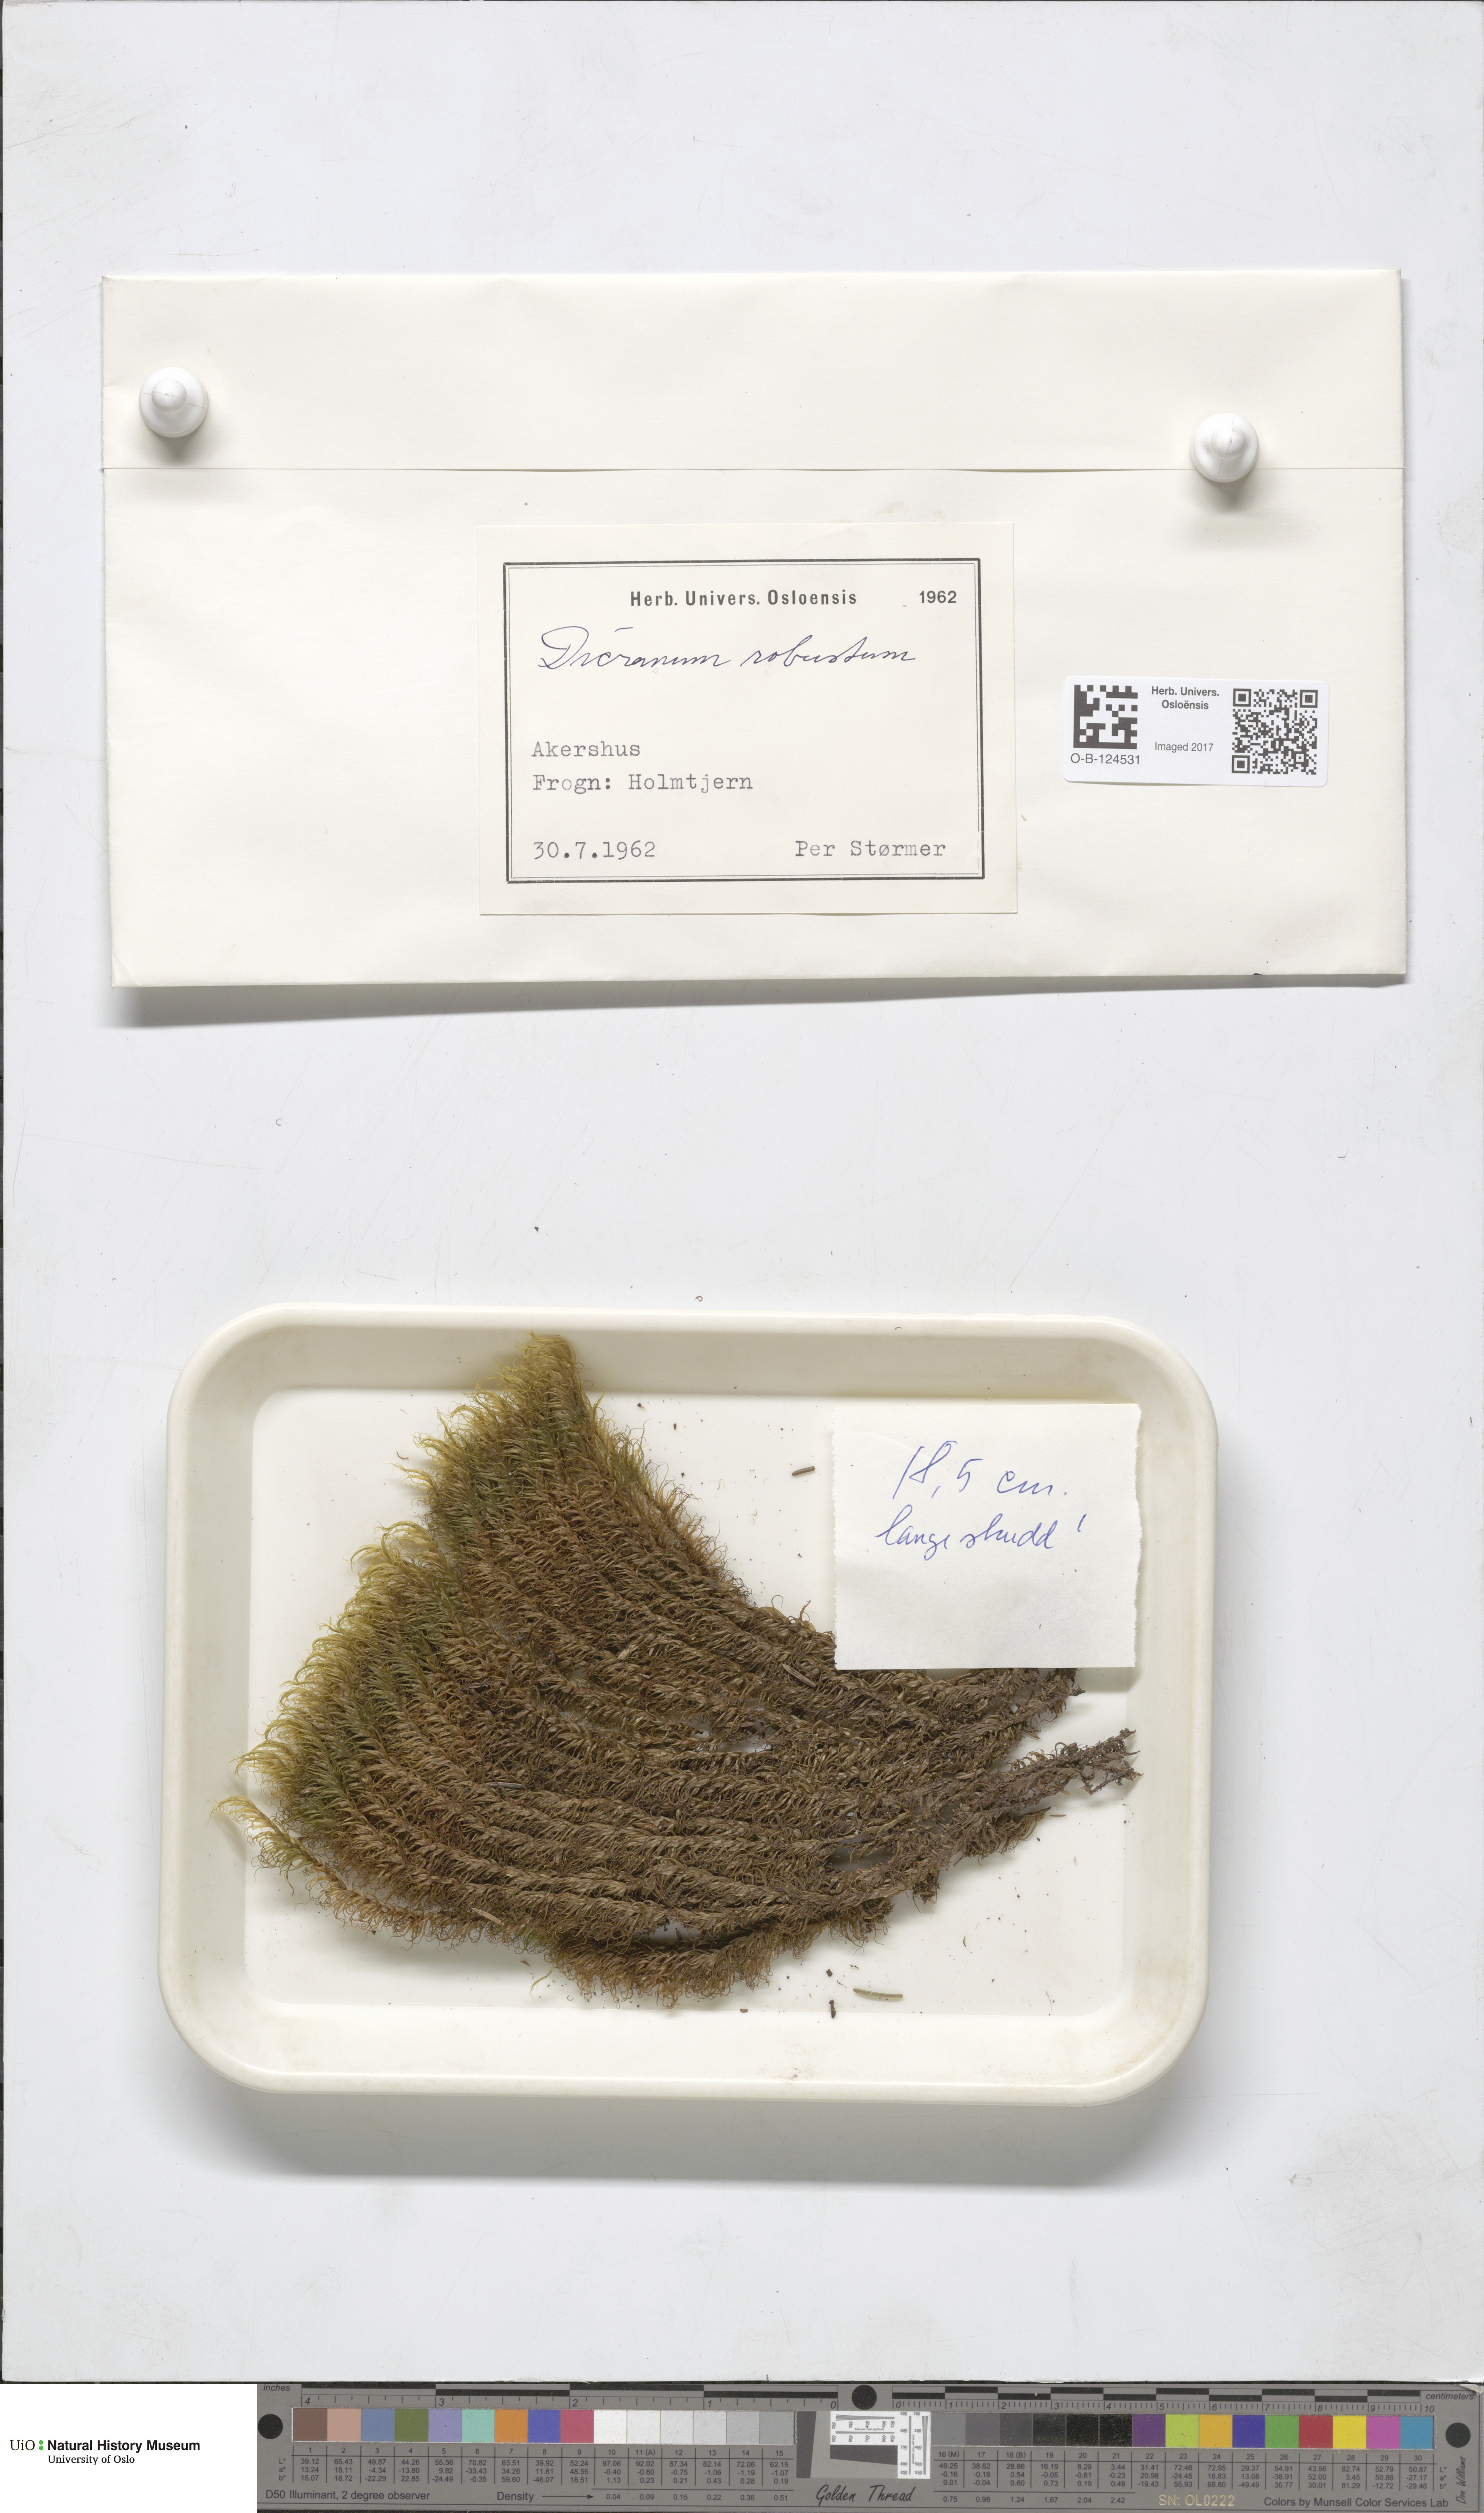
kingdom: Plantae
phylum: Bryophyta
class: Bryopsida
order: Dicranales
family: Dicranaceae
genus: Dicranum
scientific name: Dicranum drummondii
